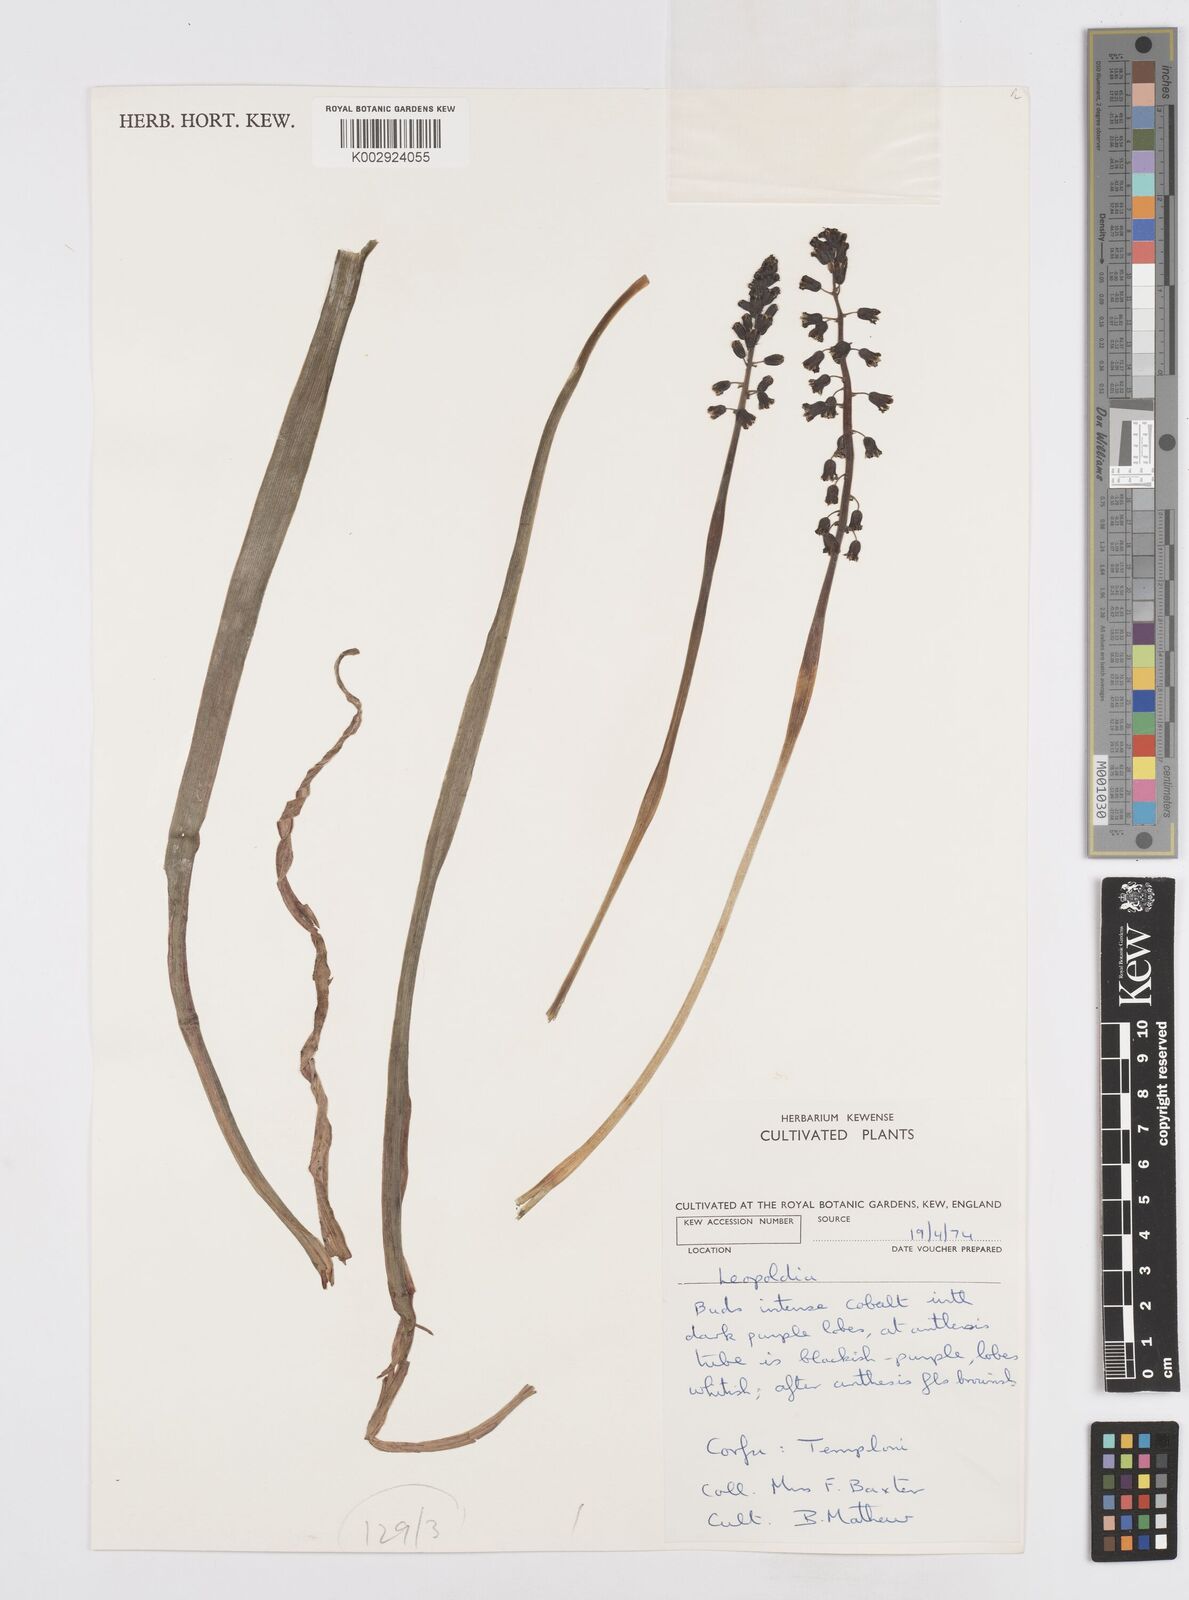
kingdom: Plantae
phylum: Tracheophyta
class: Liliopsida
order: Asparagales
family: Asparagaceae
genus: Bellevalia
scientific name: Bellevalia dubia
